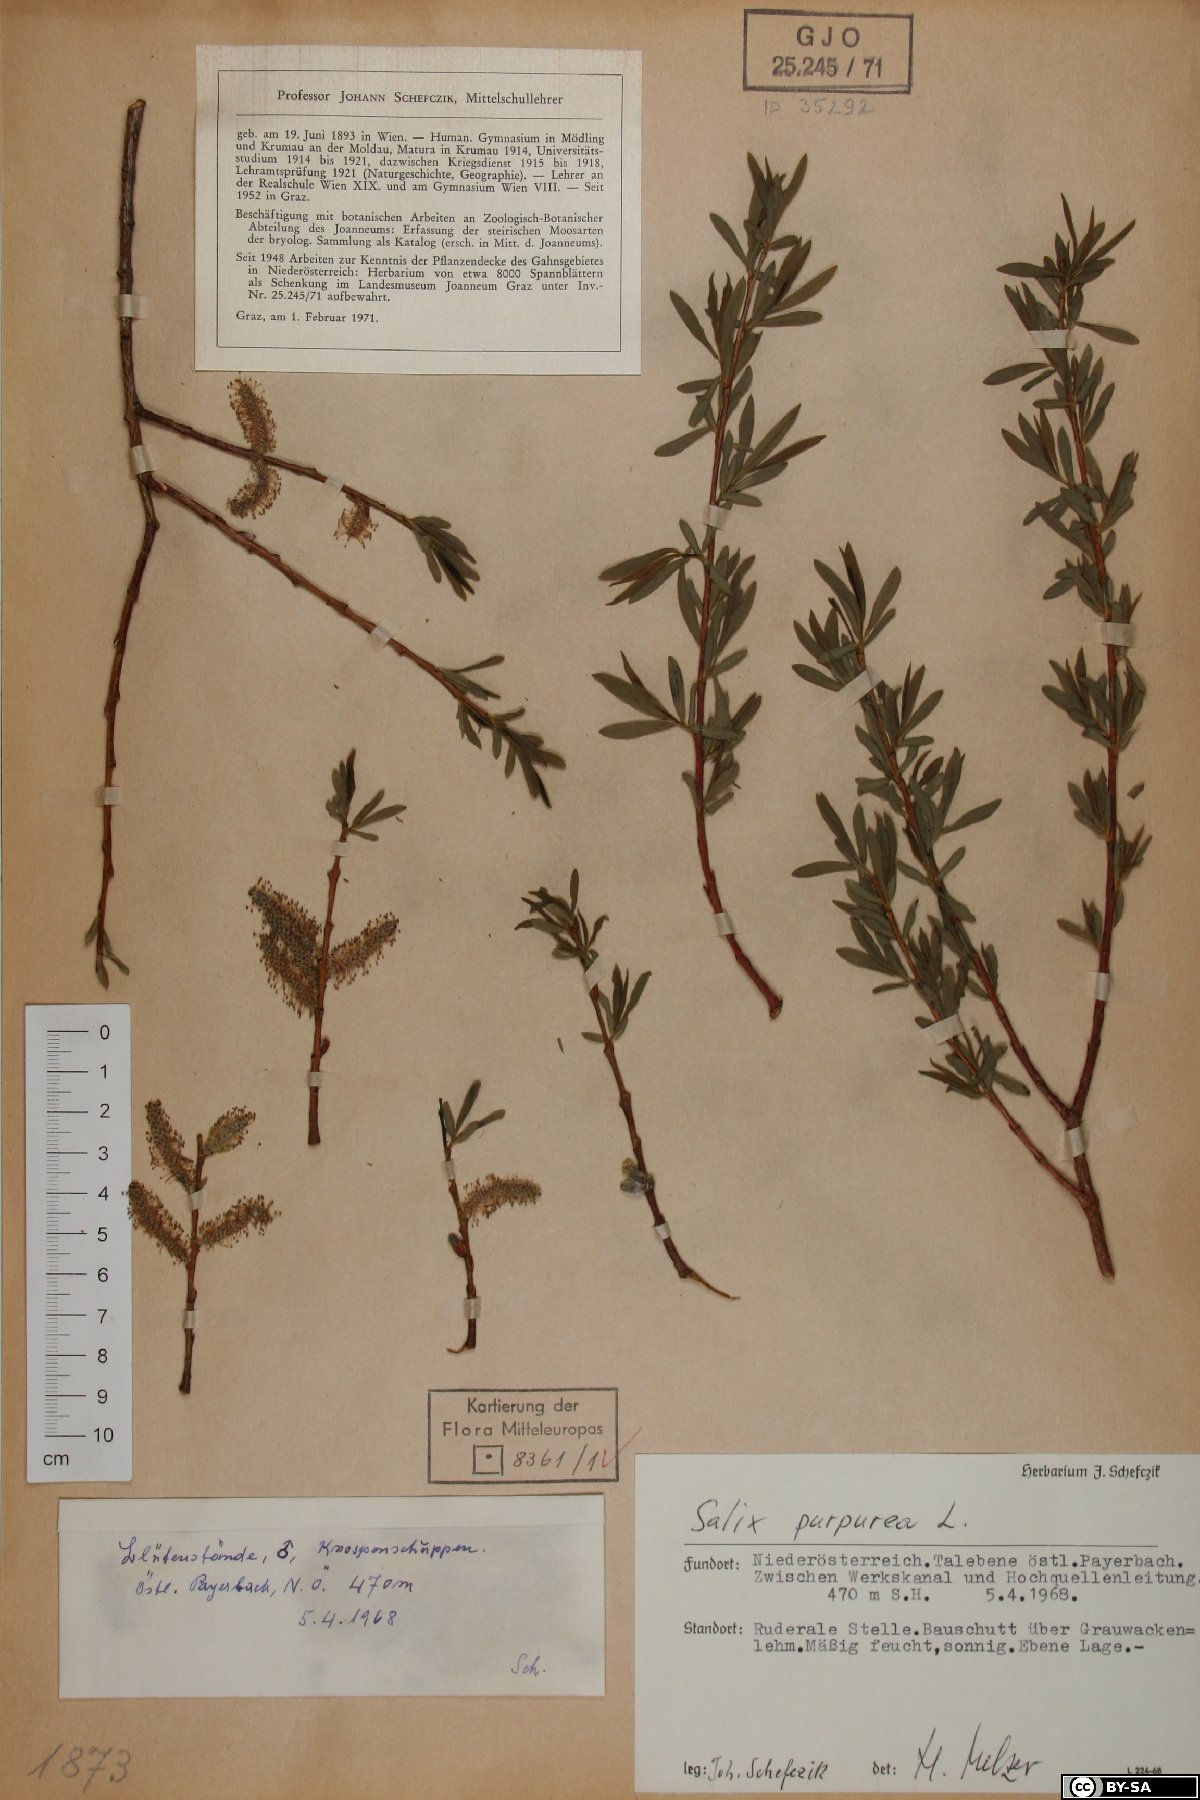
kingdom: Plantae
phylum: Tracheophyta
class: Magnoliopsida
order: Malpighiales
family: Salicaceae
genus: Salix
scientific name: Salix purpurea
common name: Purple willow
